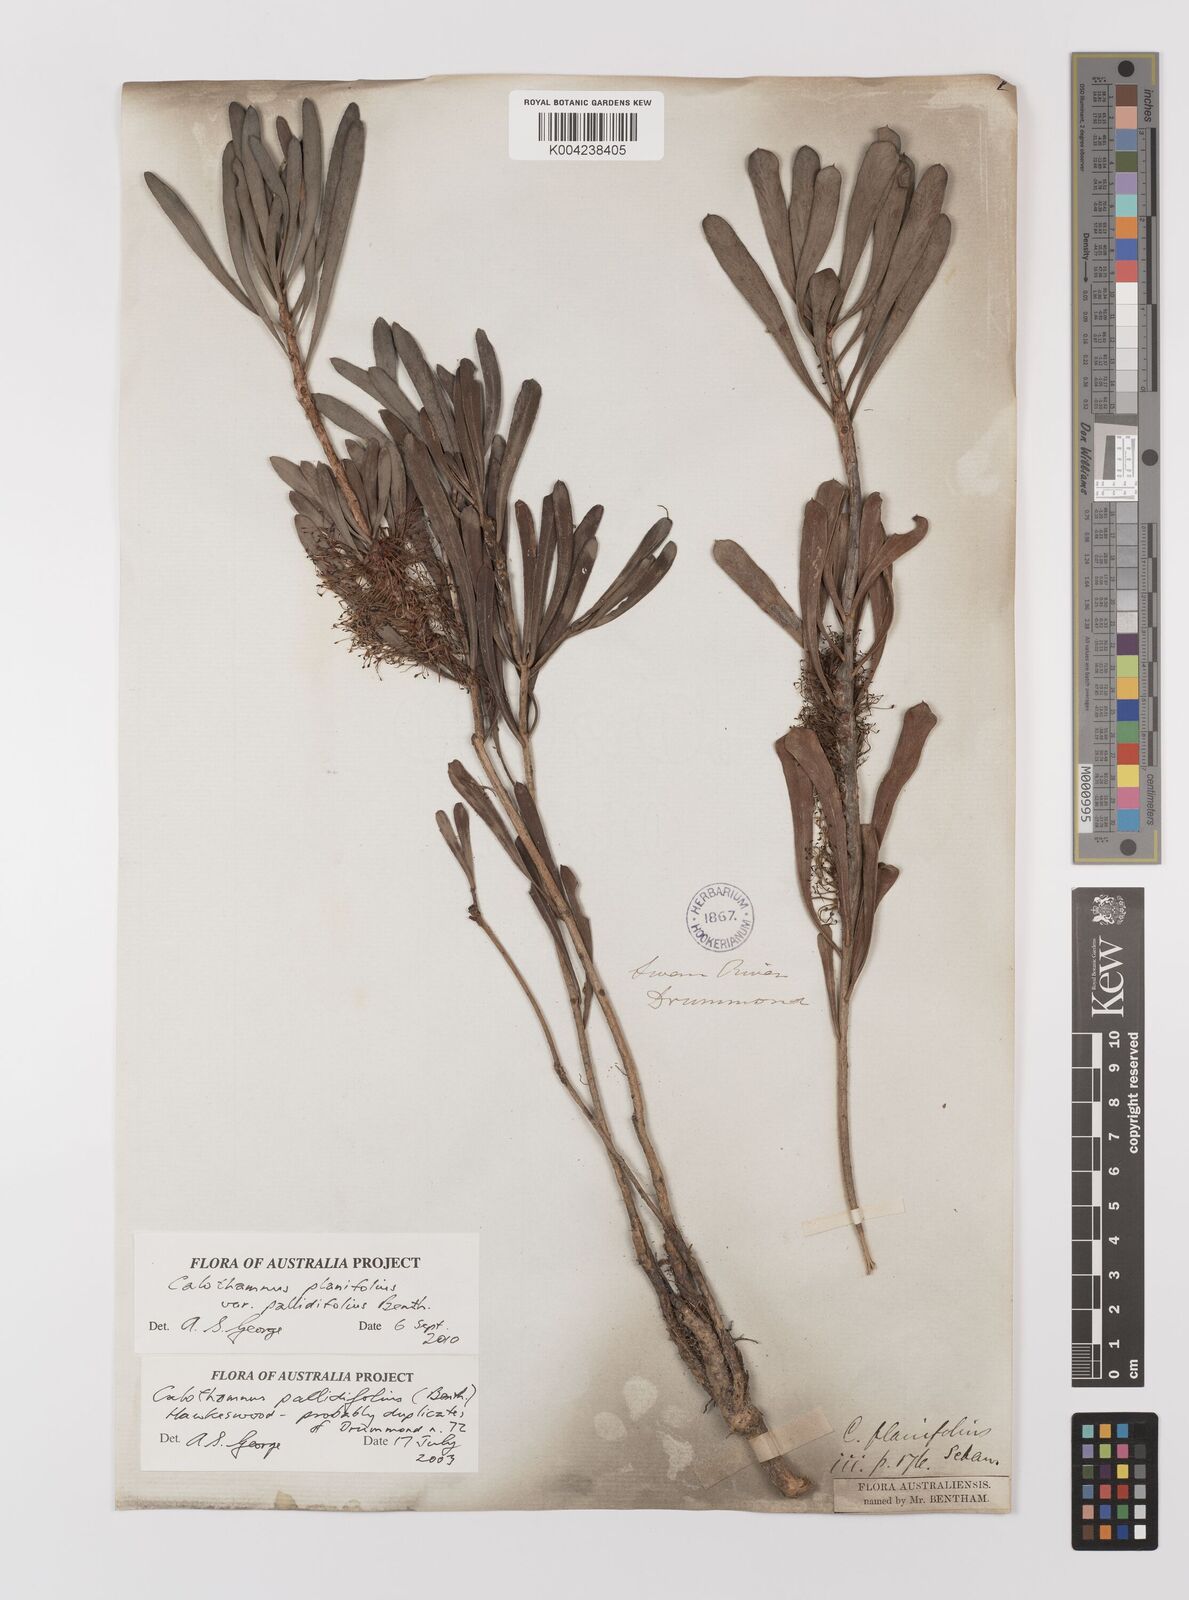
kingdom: Plantae
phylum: Tracheophyta
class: Magnoliopsida
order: Myrtales
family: Myrtaceae
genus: Melaleuca
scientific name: Melaleuca planifolia
